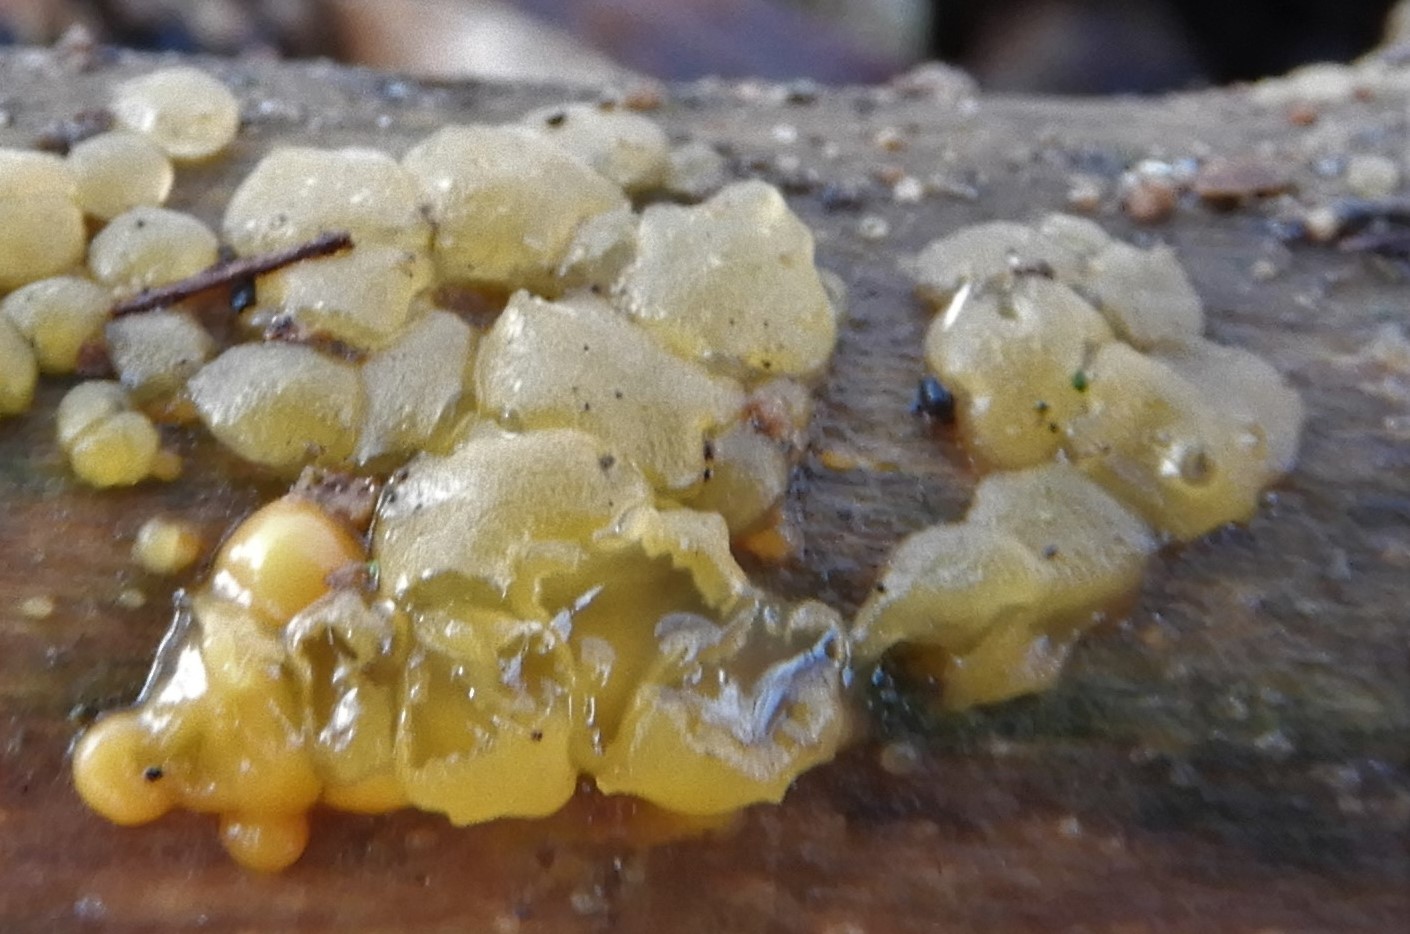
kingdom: Fungi
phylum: Basidiomycota
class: Dacrymycetes
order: Dacrymycetales
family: Dacrymycetaceae
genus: Dacrymyces
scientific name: Dacrymyces lacrymalis
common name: rynket tåresvamp
